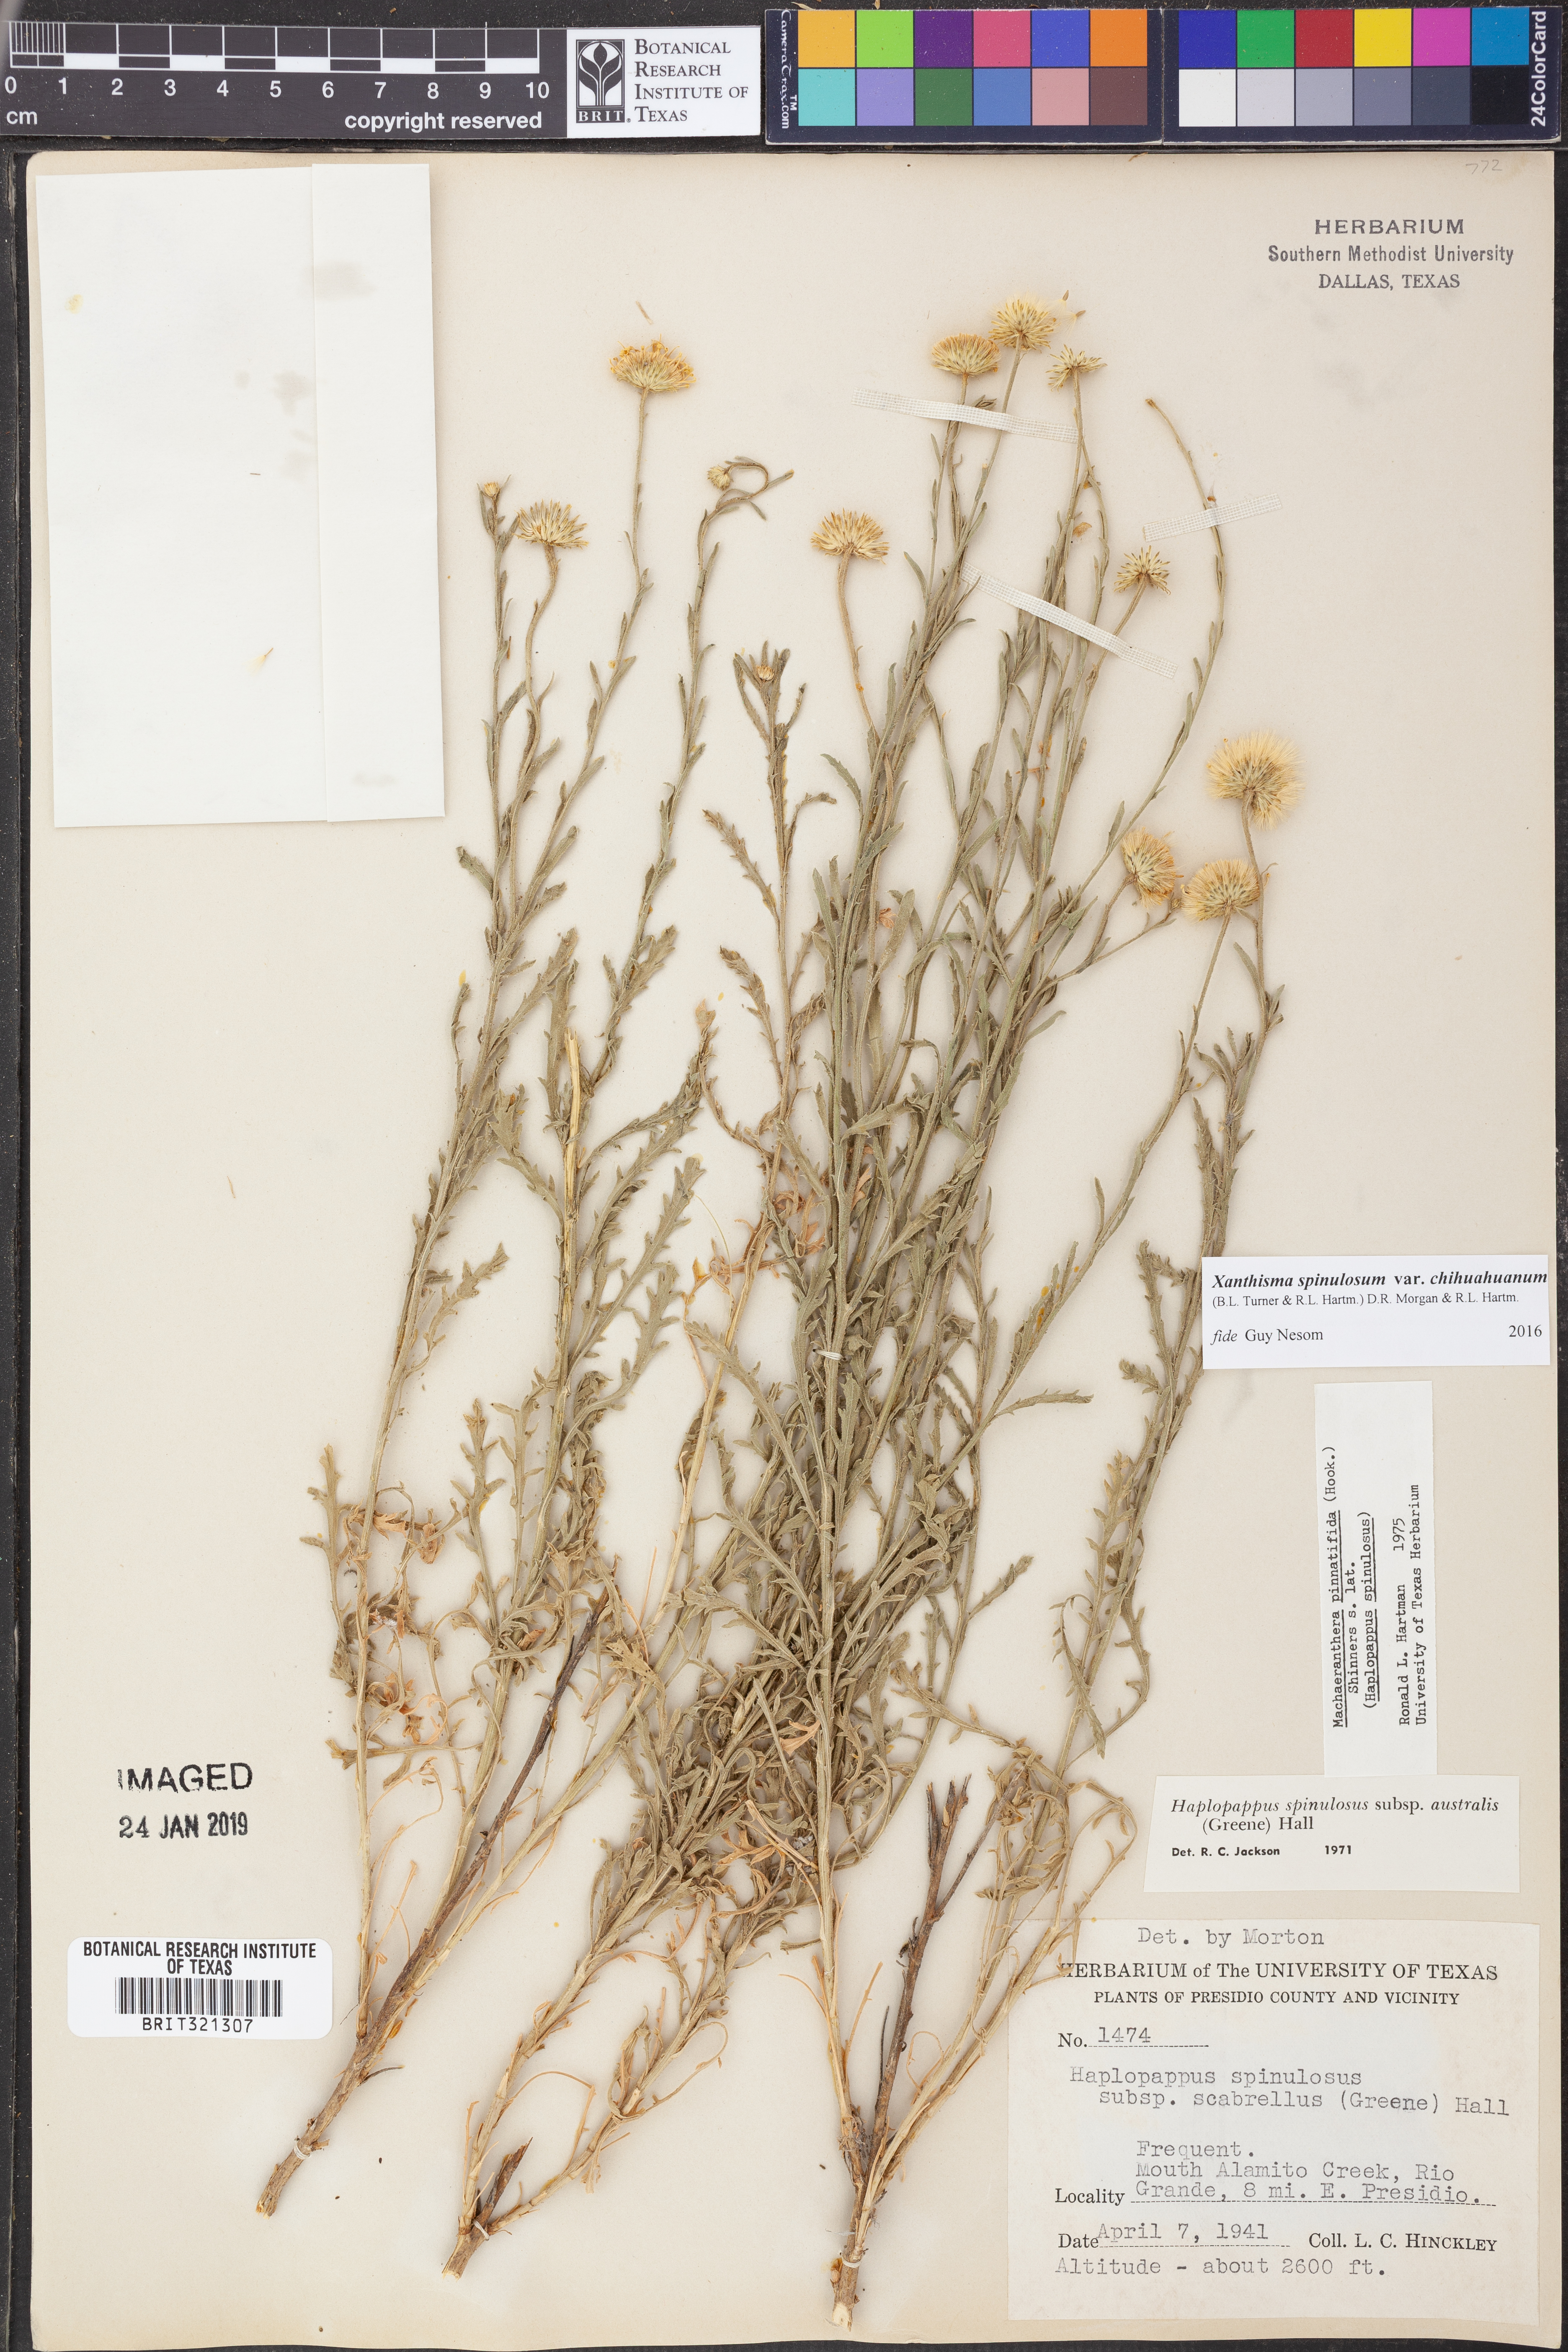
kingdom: Plantae
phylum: Tracheophyta
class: Magnoliopsida
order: Asterales
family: Asteraceae
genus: Xanthisma
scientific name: Xanthisma spinulosum
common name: Spiny goldenweed
